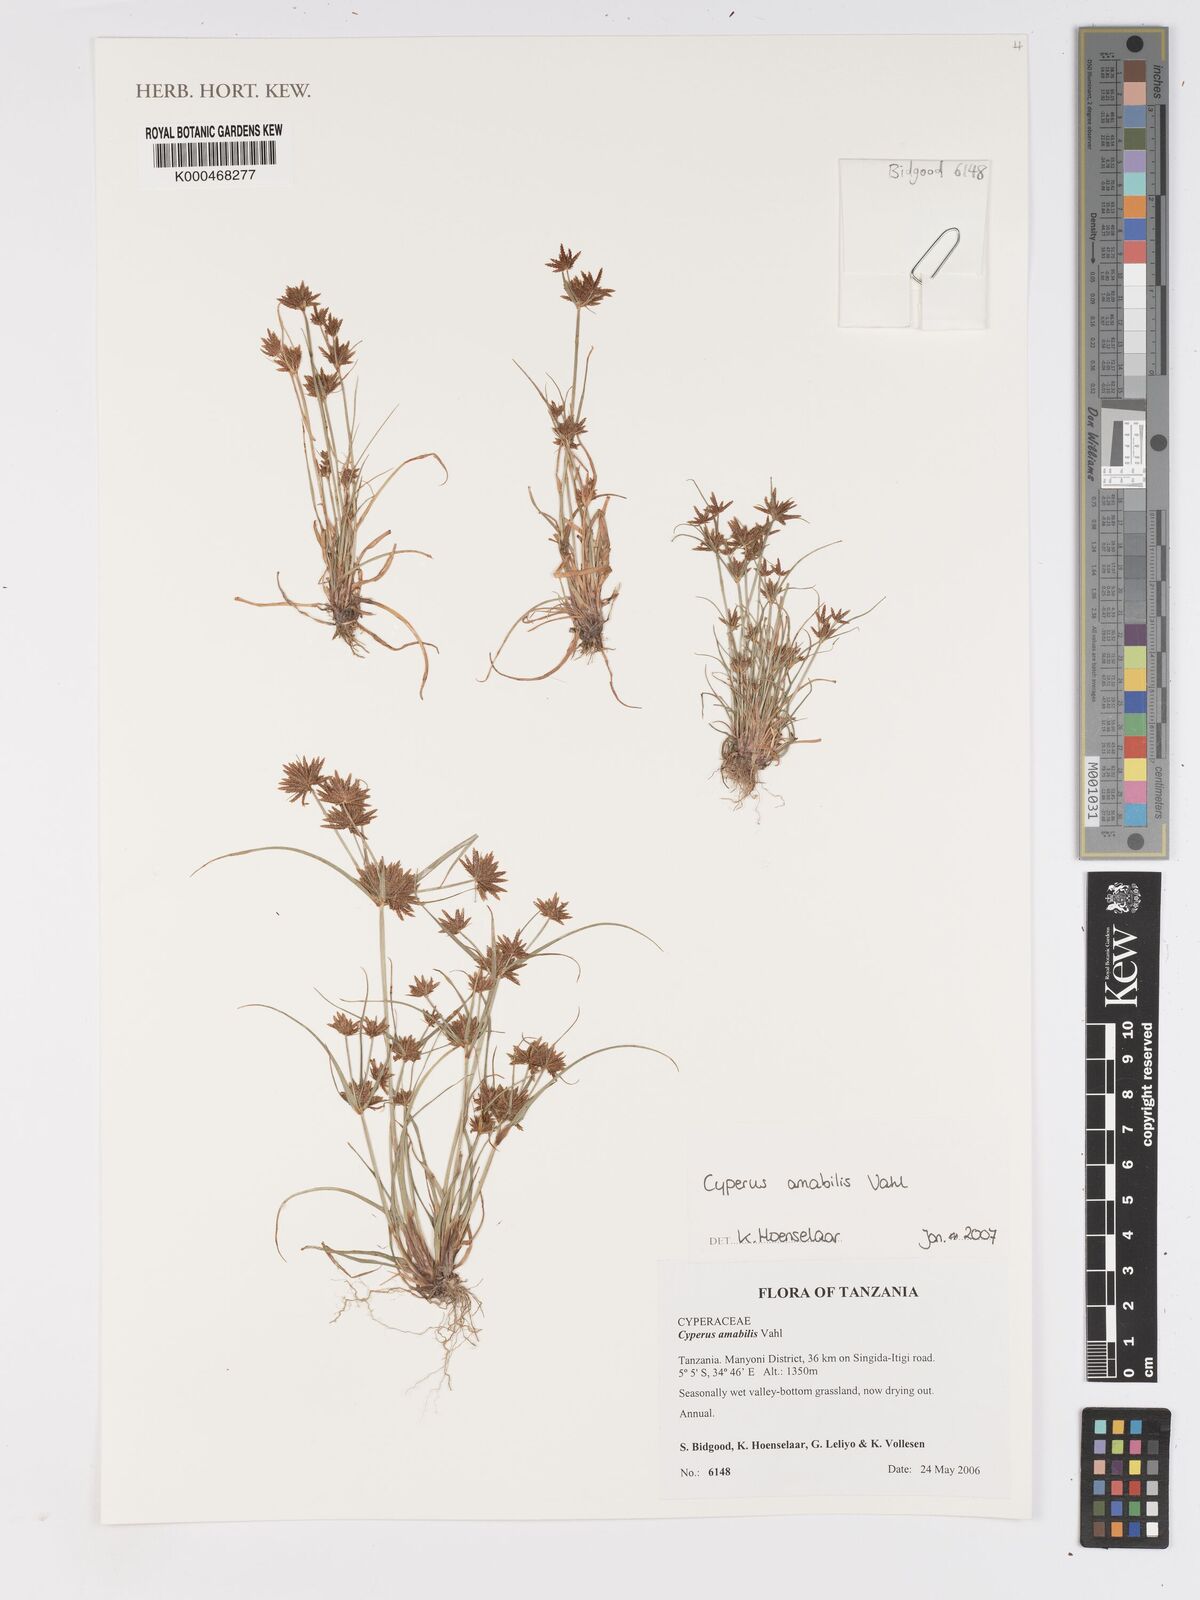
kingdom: Plantae
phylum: Tracheophyta
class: Liliopsida
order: Poales
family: Cyperaceae
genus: Cyperus
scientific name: Cyperus amabilis
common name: Foothill flat sedge
